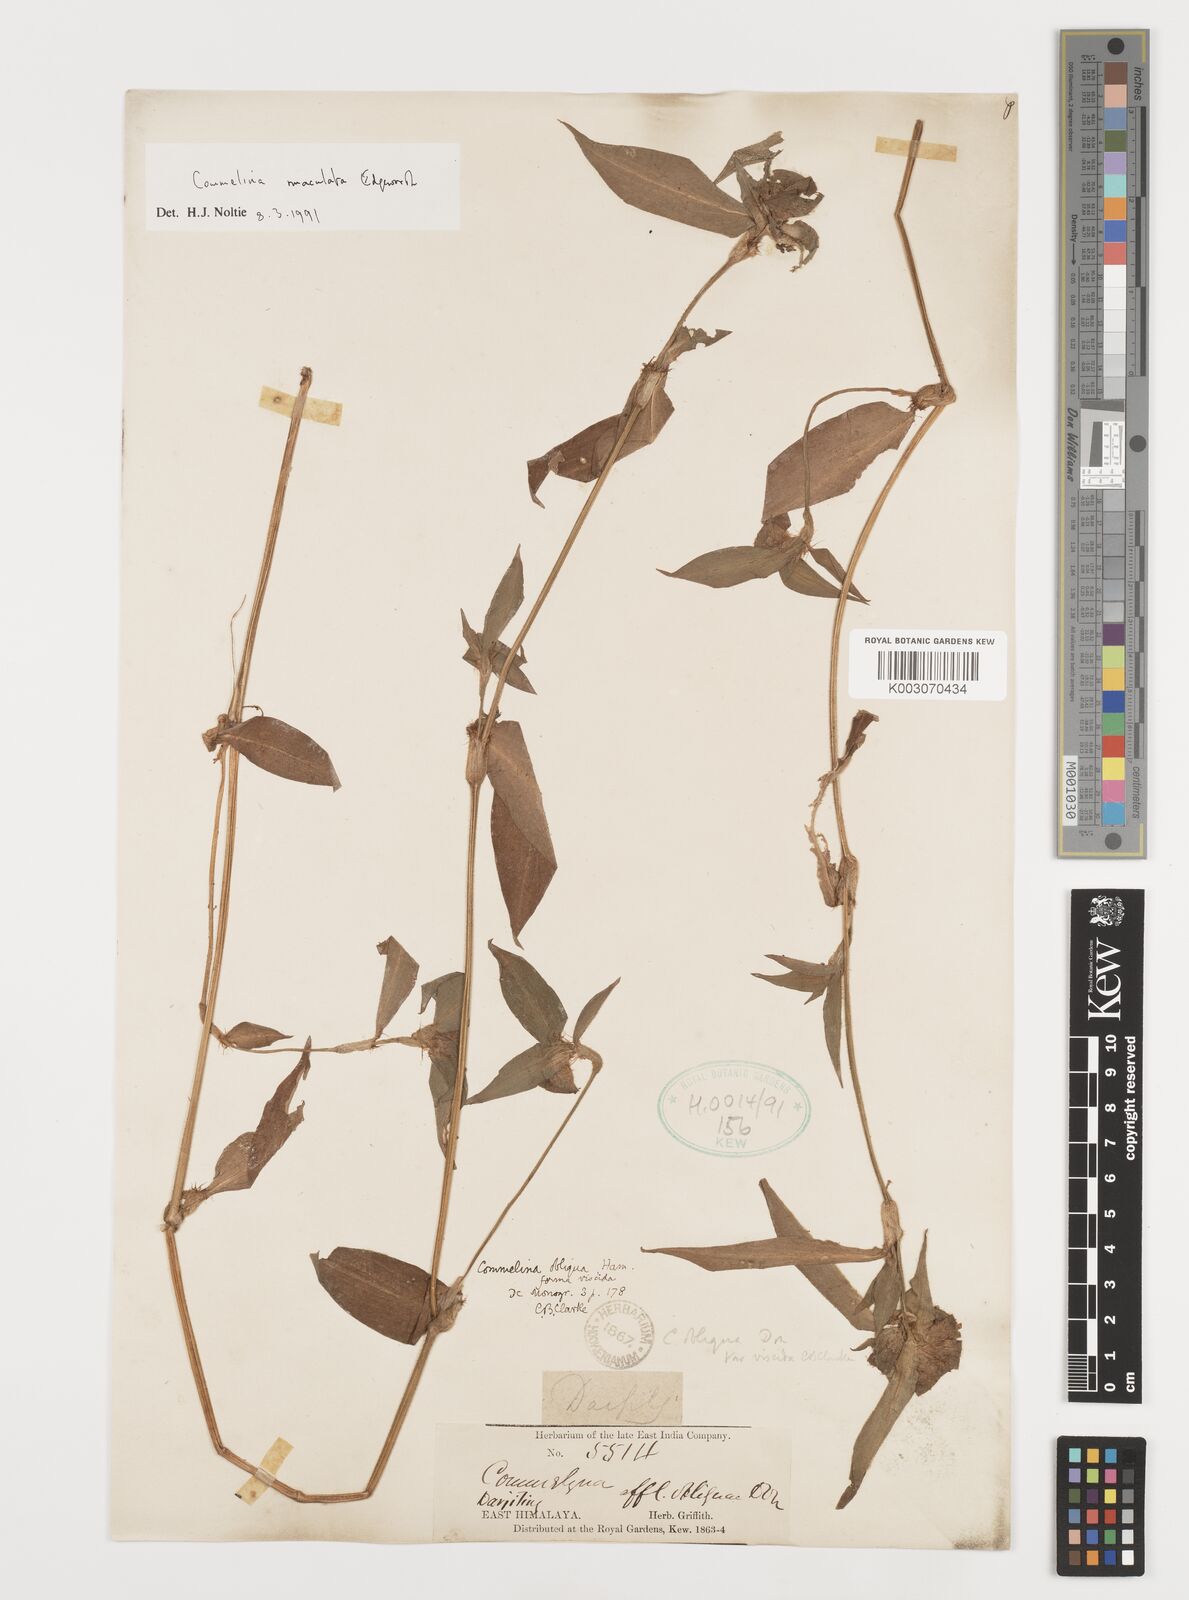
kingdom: Plantae
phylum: Tracheophyta
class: Liliopsida
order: Commelinales
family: Commelinaceae
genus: Commelina
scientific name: Commelina maculata
